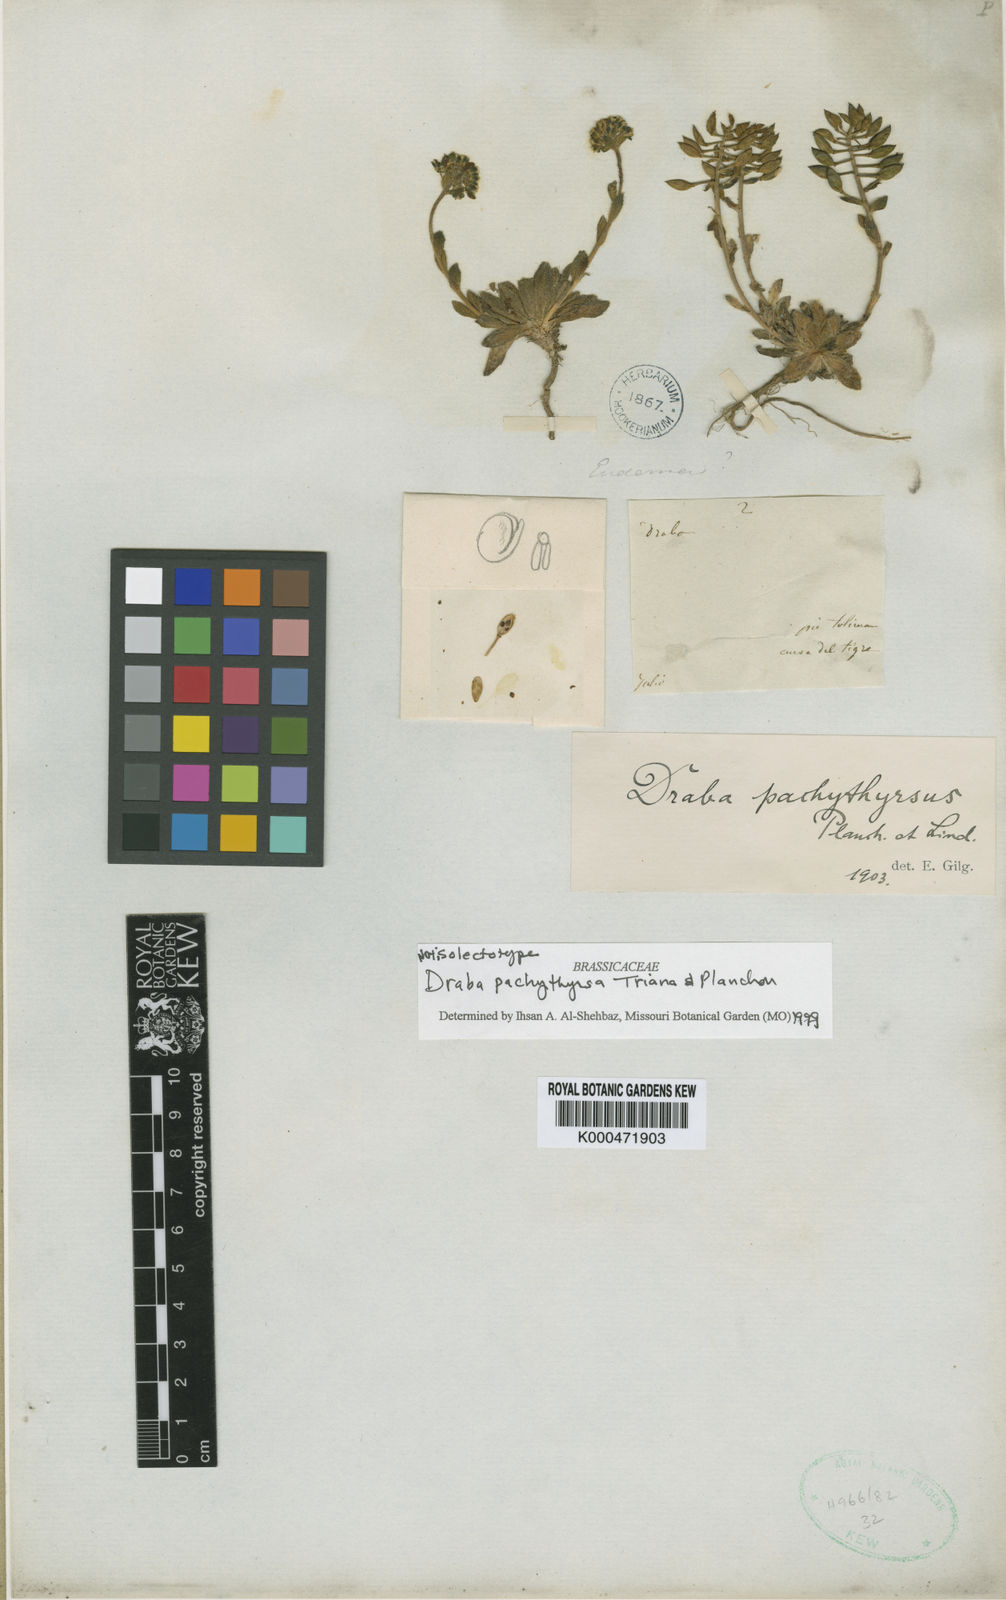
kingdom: Plantae
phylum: Tracheophyta
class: Magnoliopsida
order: Brassicales
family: Brassicaceae
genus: Draba
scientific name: Draba pachythyrsa
